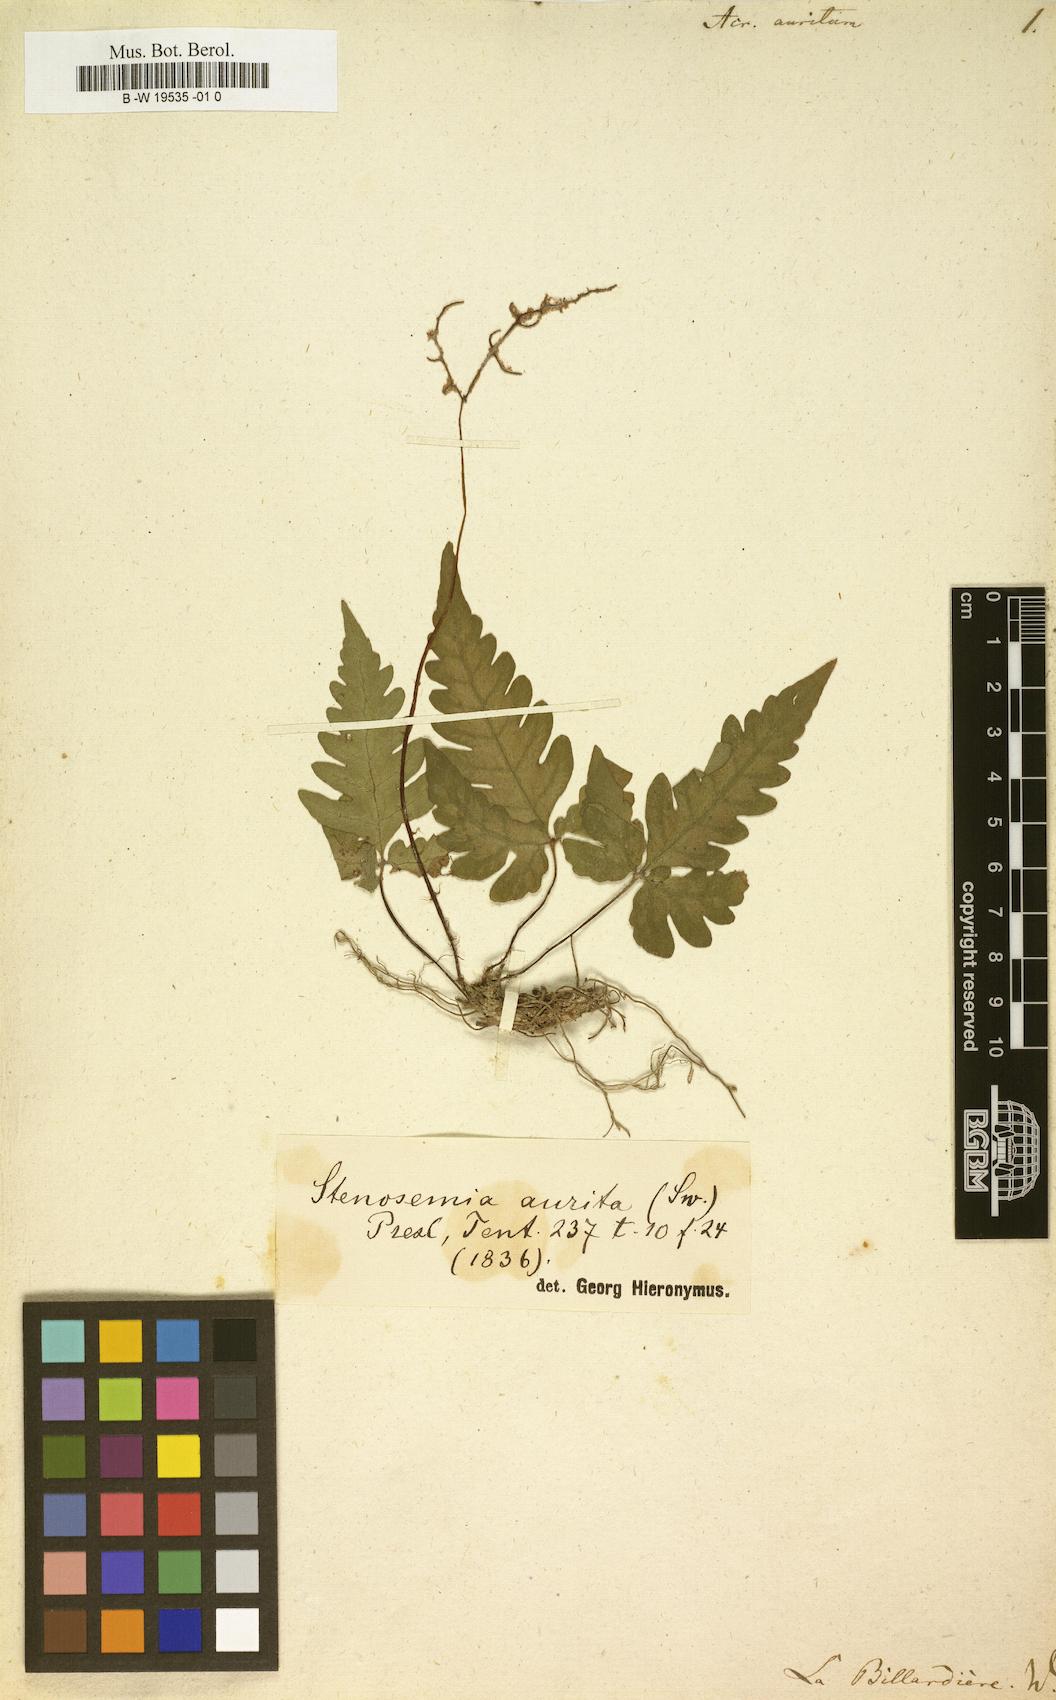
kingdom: Plantae
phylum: Tracheophyta
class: Polypodiopsida
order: Polypodiales
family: Tectariaceae
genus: Tectaria
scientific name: Tectaria aurita
